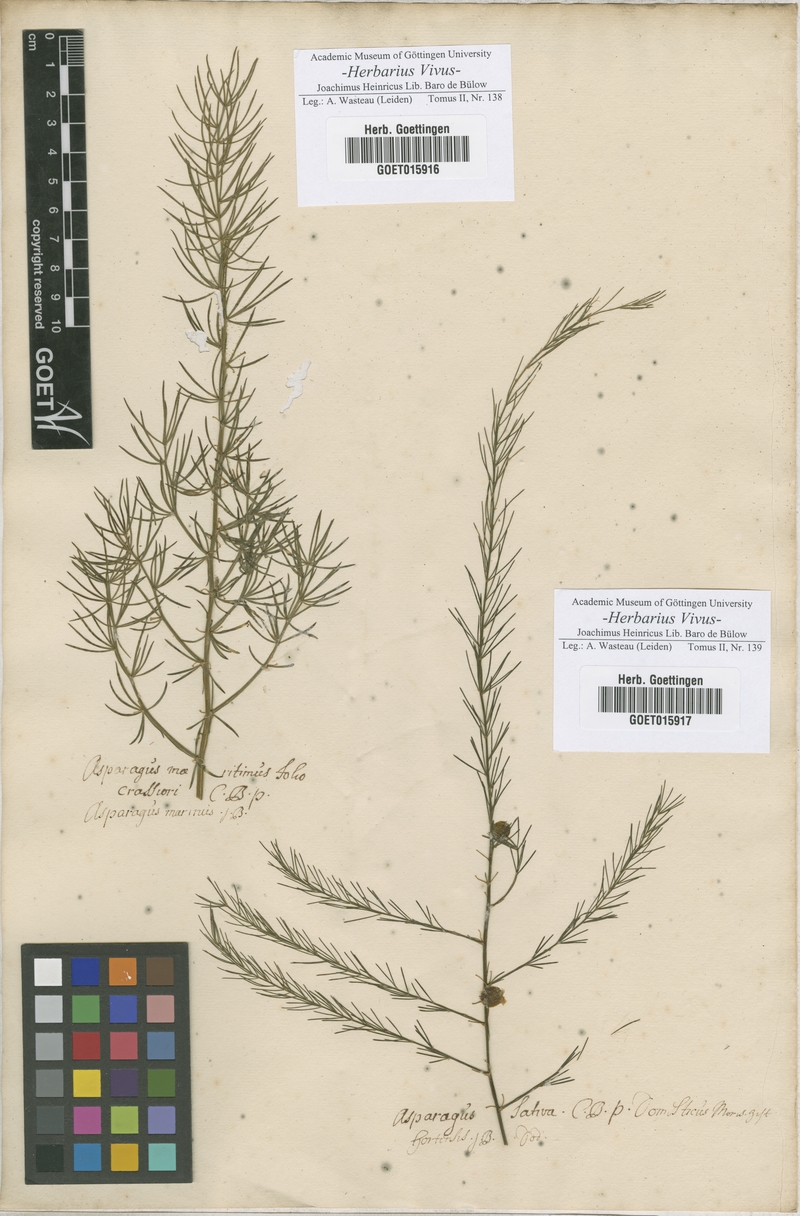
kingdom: Plantae
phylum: Tracheophyta
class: Liliopsida
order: Asparagales
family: Asparagaceae
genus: Asparagus
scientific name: Asparagus maritimus
